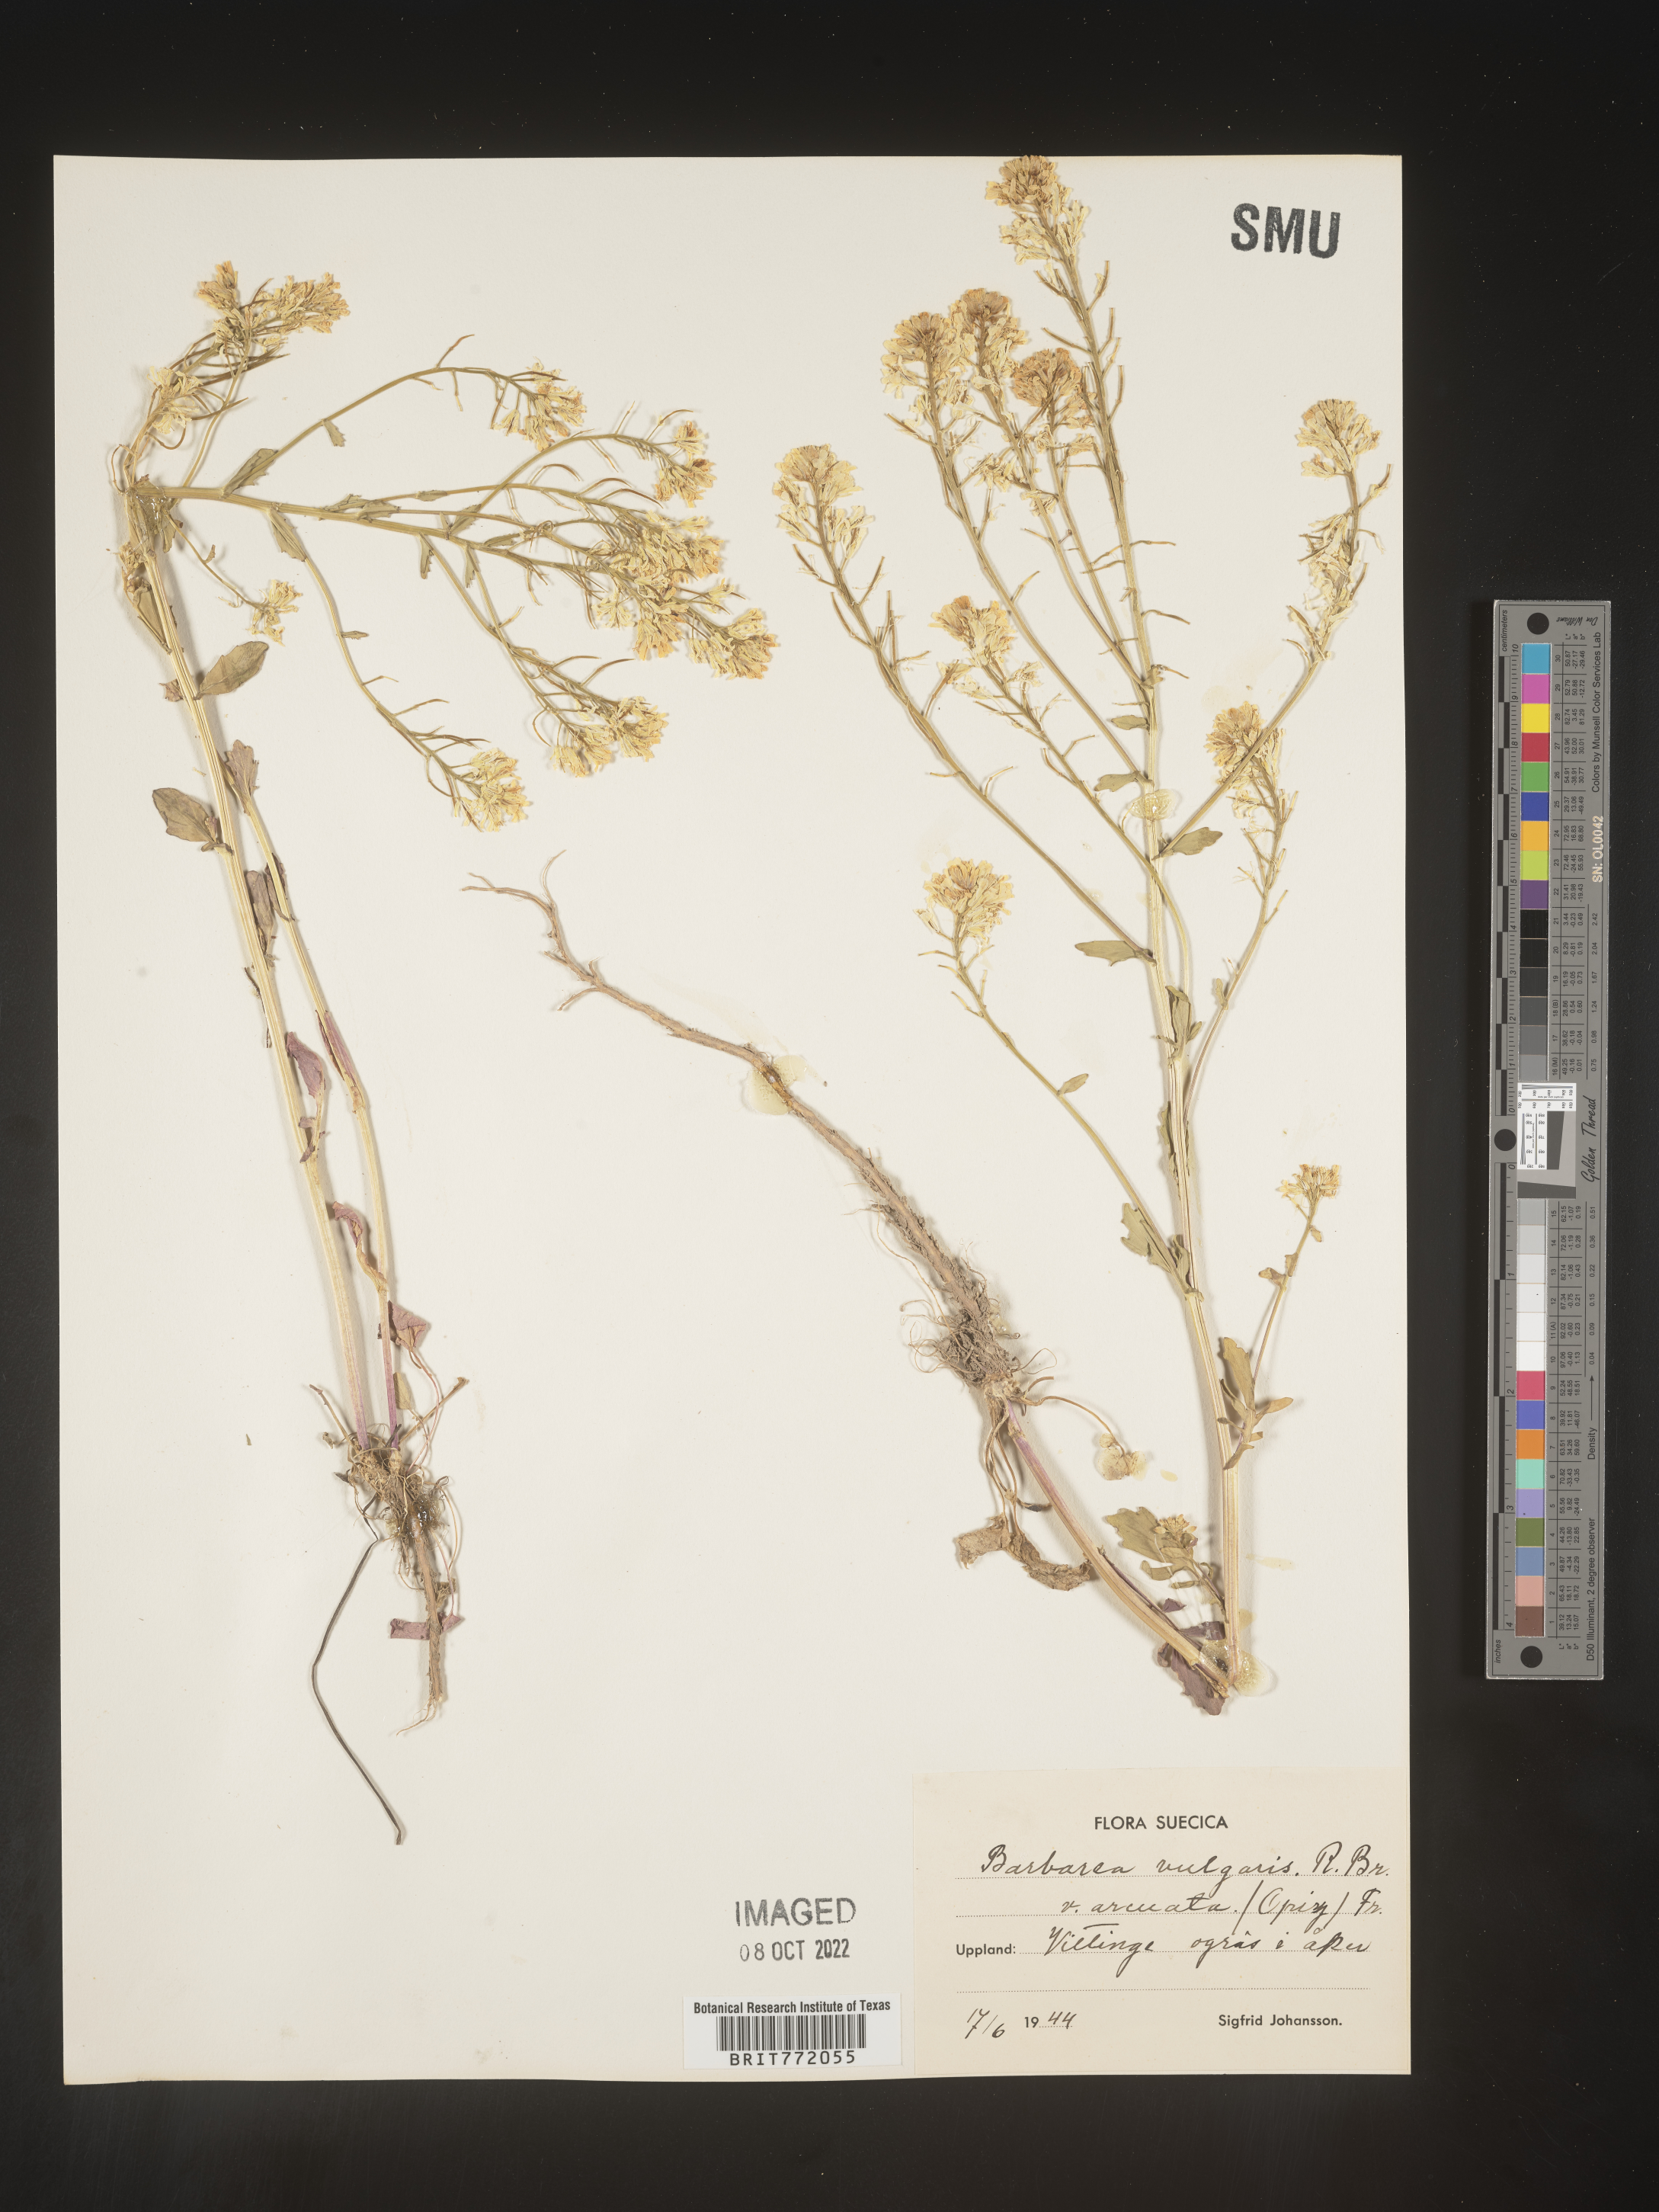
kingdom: Plantae
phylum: Tracheophyta
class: Magnoliopsida
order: Brassicales
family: Brassicaceae
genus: Barbarea
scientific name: Barbarea
